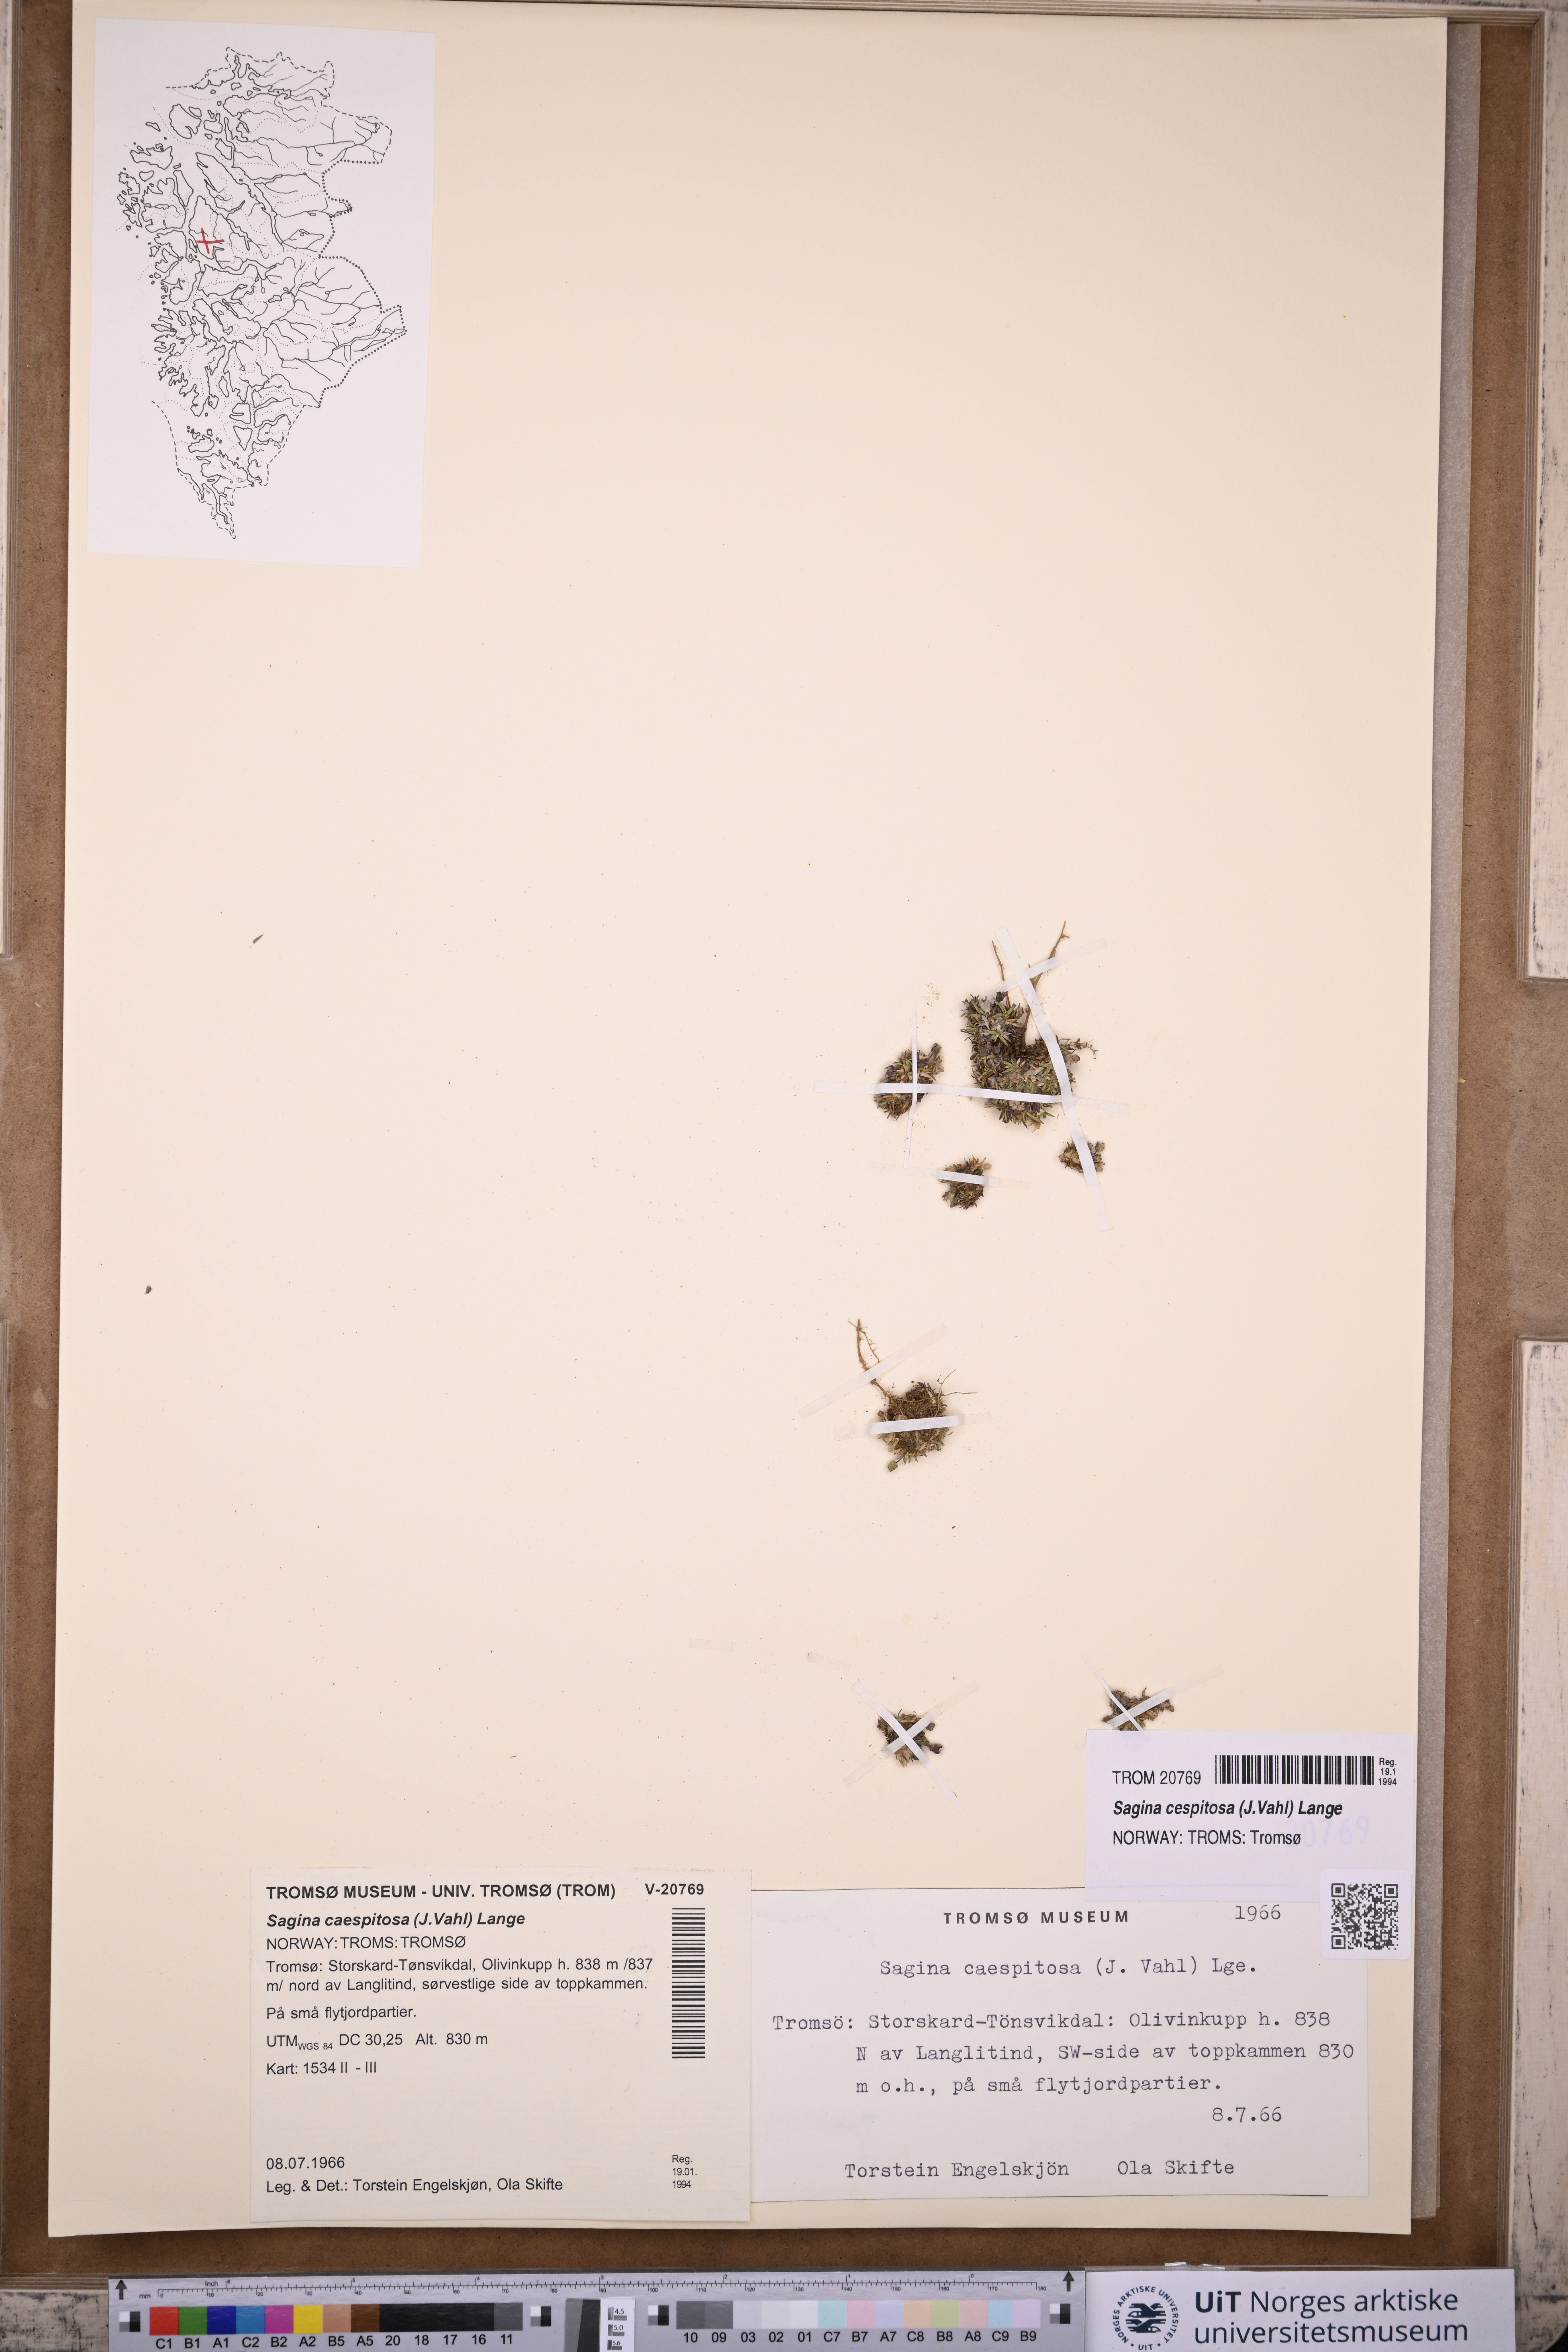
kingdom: Plantae
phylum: Tracheophyta
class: Magnoliopsida
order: Caryophyllales
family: Caryophyllaceae
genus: Sagina
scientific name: Sagina caespitosa
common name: Tufted pearlwort
